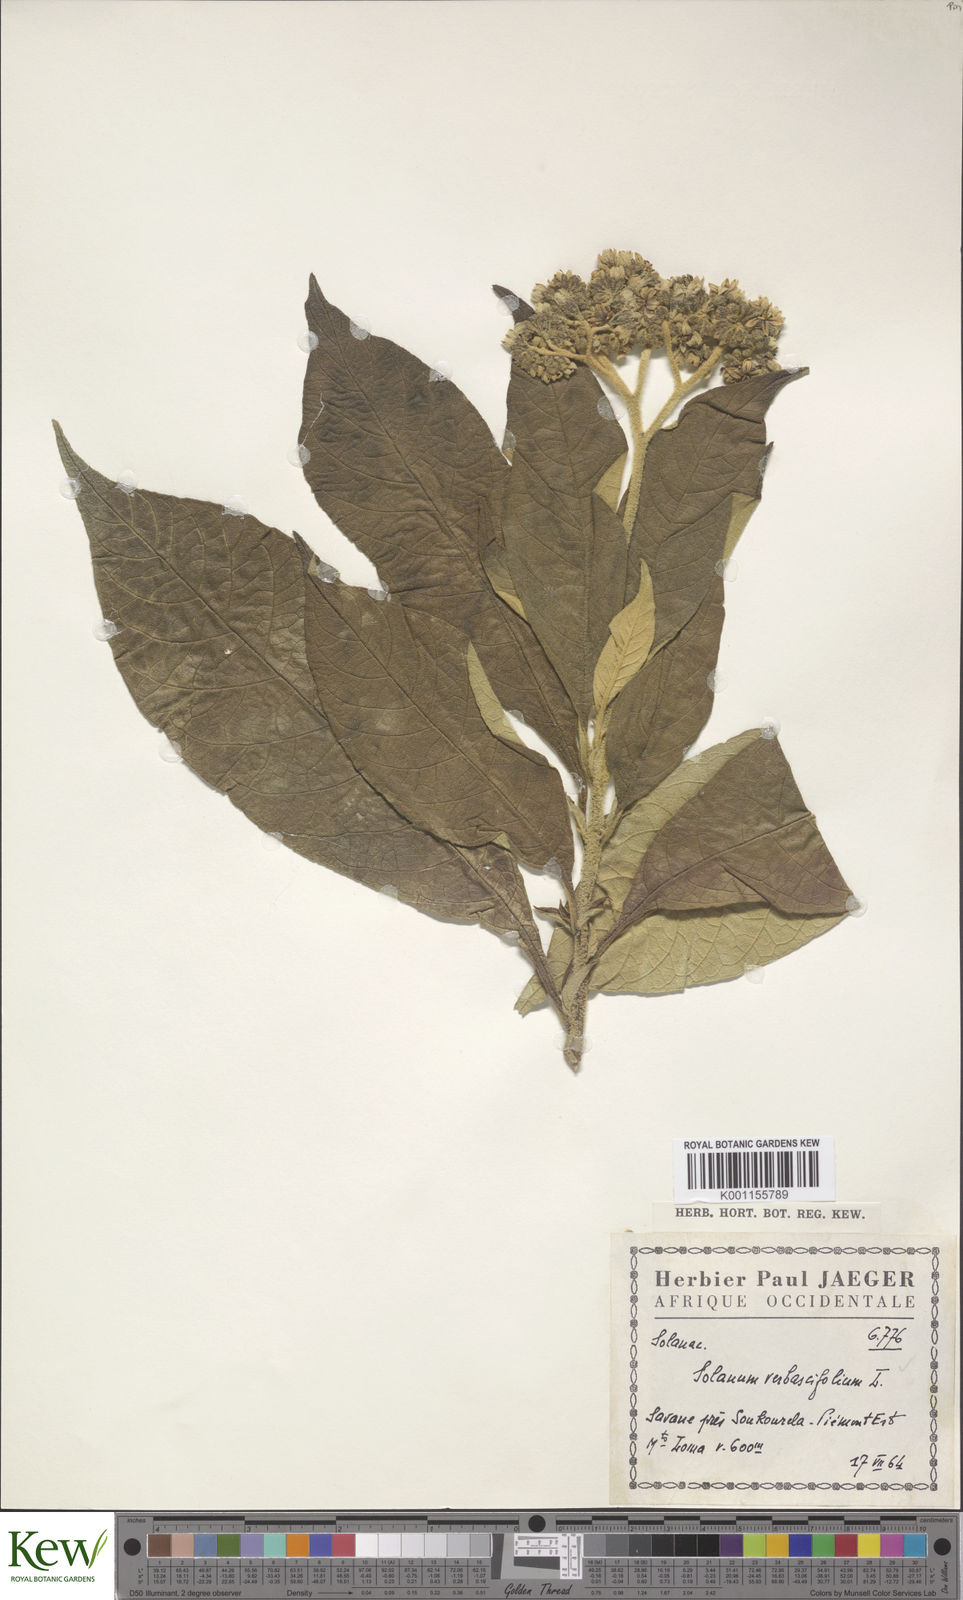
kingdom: Plantae
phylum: Tracheophyta
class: Magnoliopsida
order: Solanales
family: Solanaceae
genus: Solanum
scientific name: Solanum rugosum
